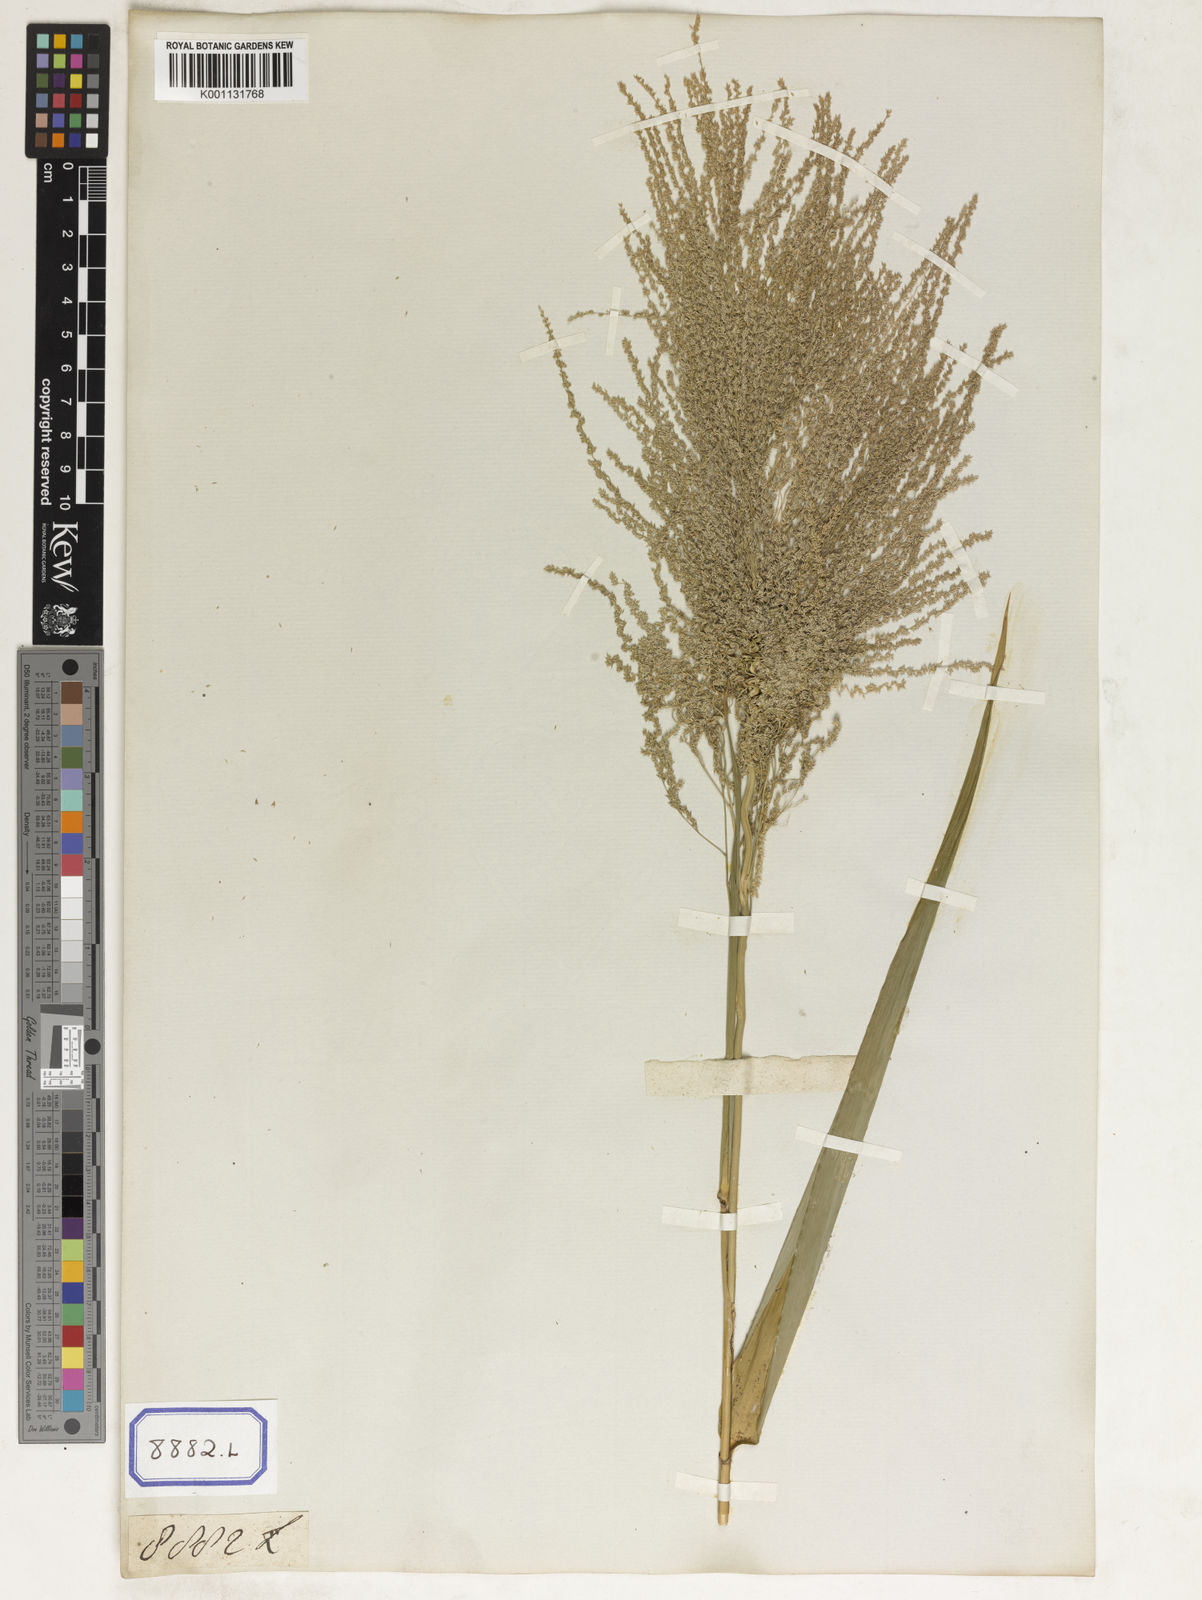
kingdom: Plantae
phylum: Tracheophyta
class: Liliopsida
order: Poales
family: Poaceae
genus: Thysanolaena
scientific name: Thysanolaena latifolia
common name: Tiger grass
